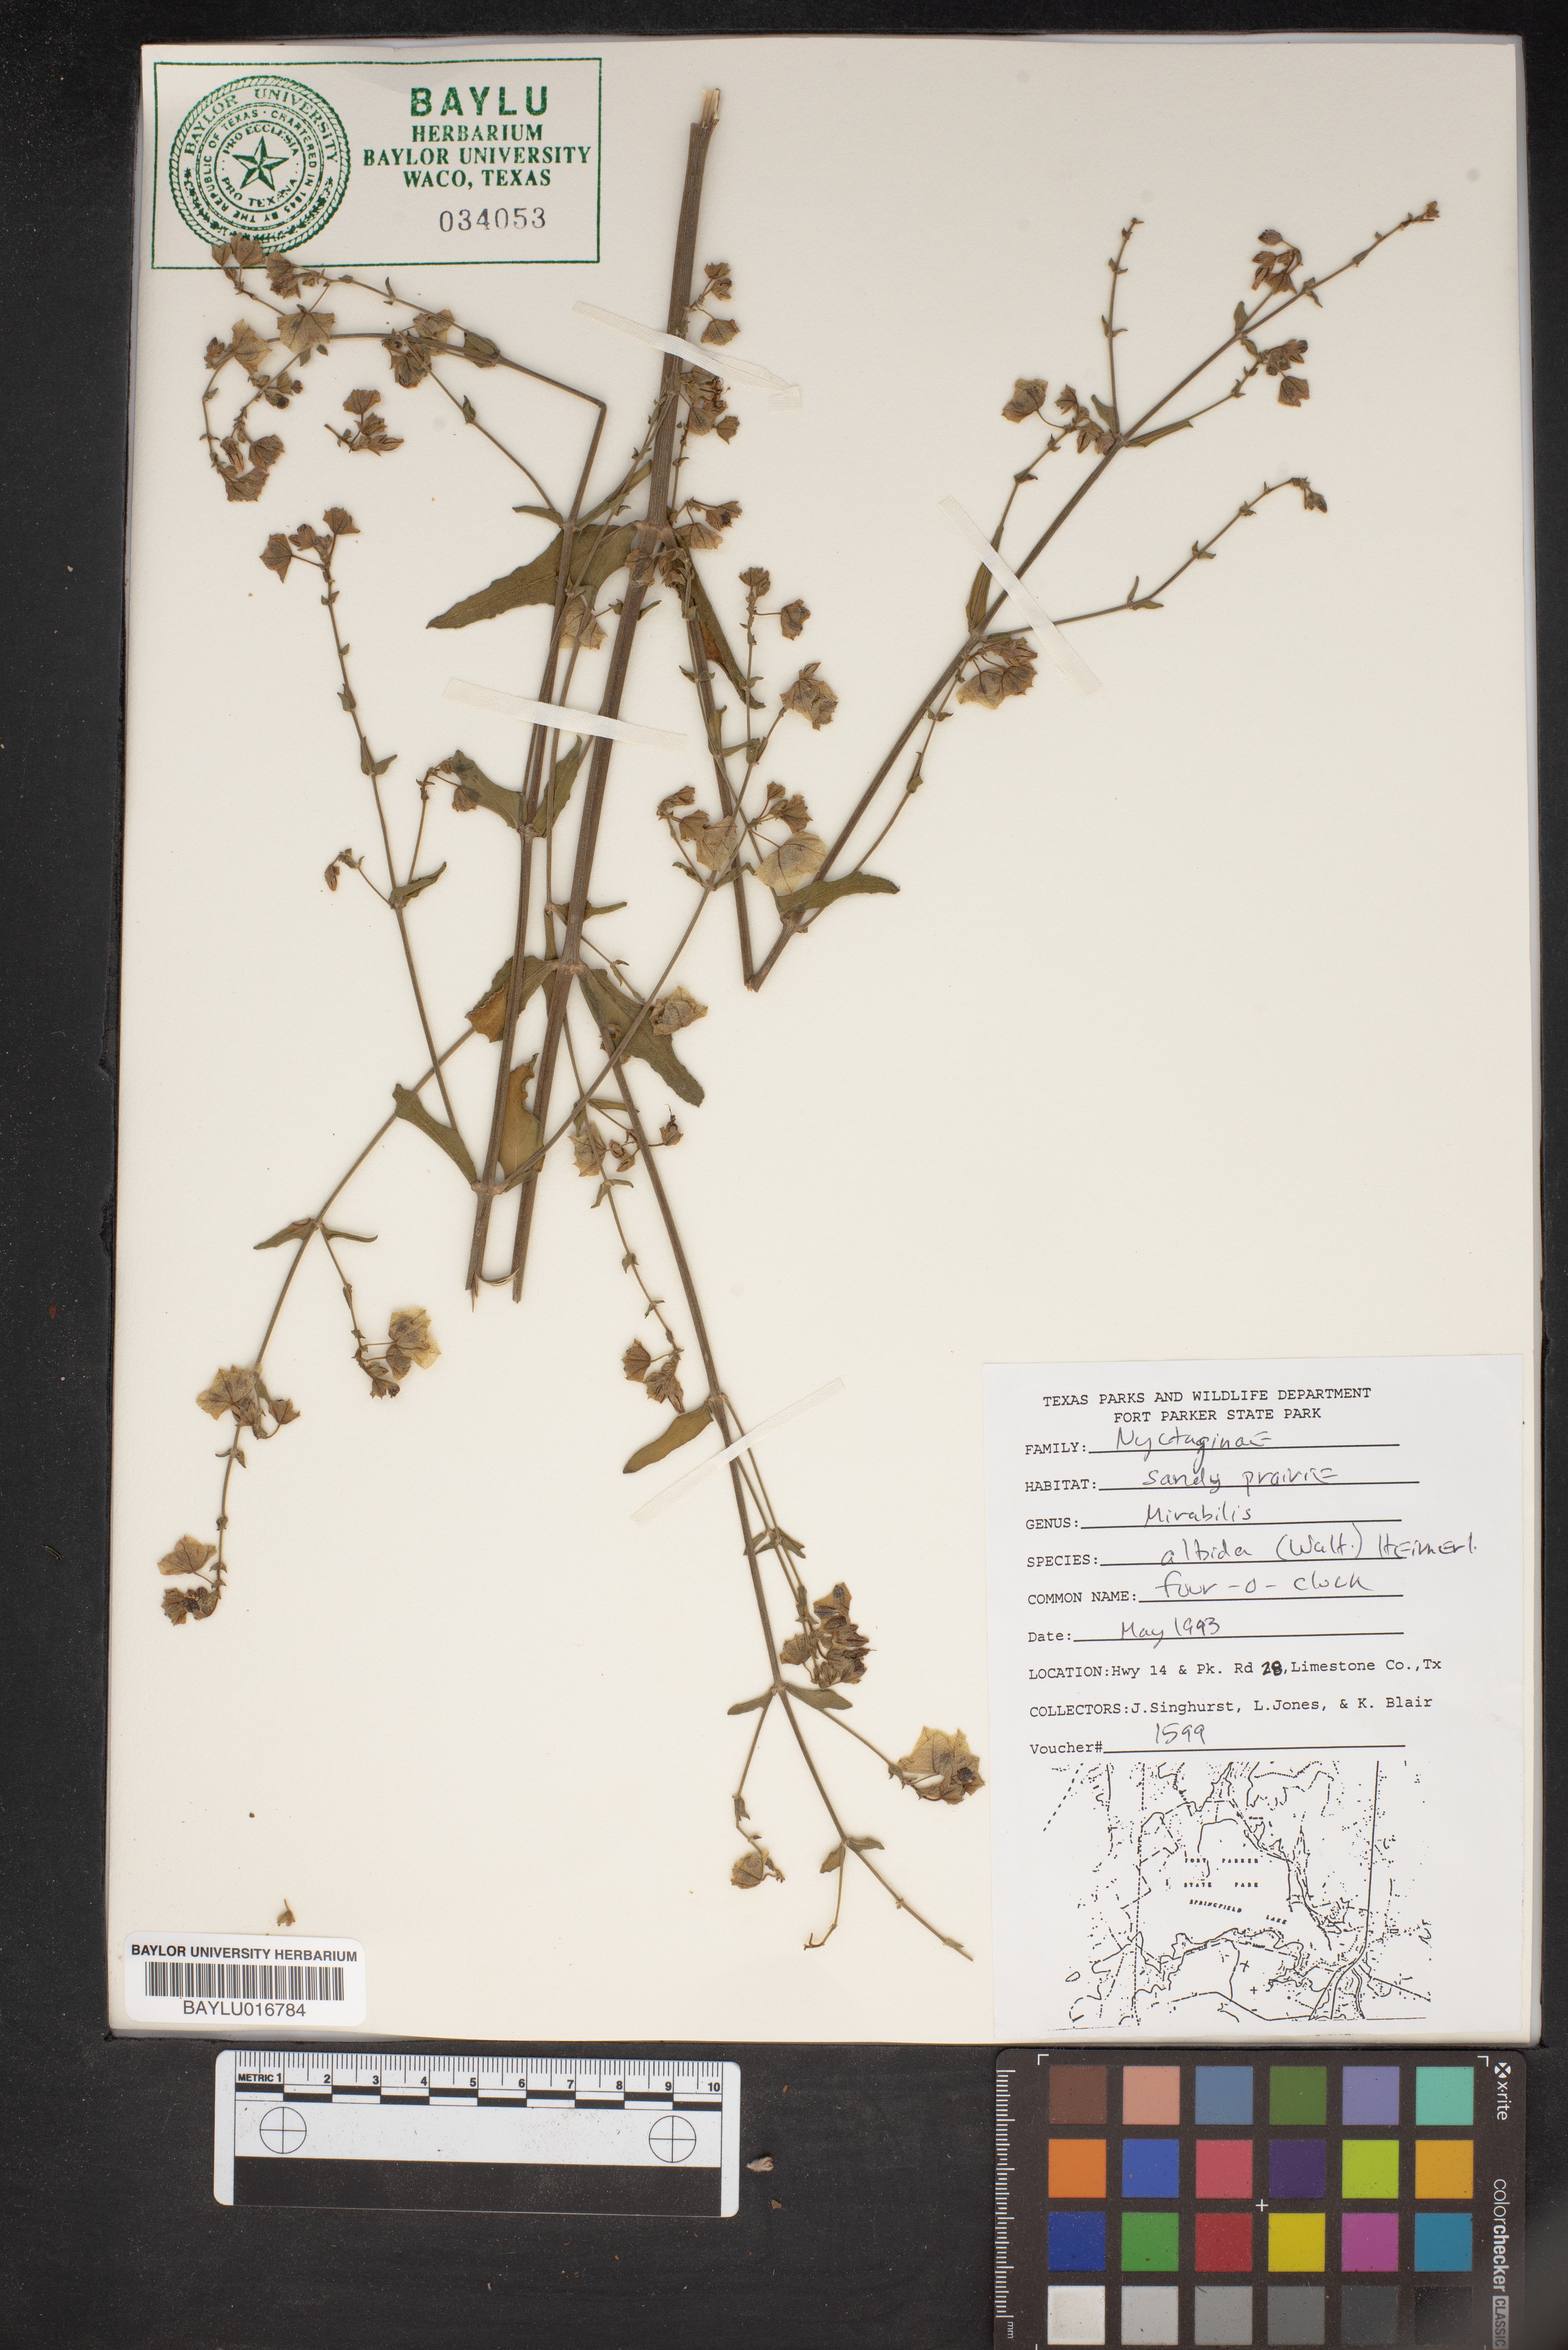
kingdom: Plantae
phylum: Tracheophyta
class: Magnoliopsida
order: Caryophyllales
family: Nyctaginaceae
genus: Mirabilis
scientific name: Mirabilis albida
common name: Hairy four-o'clock
